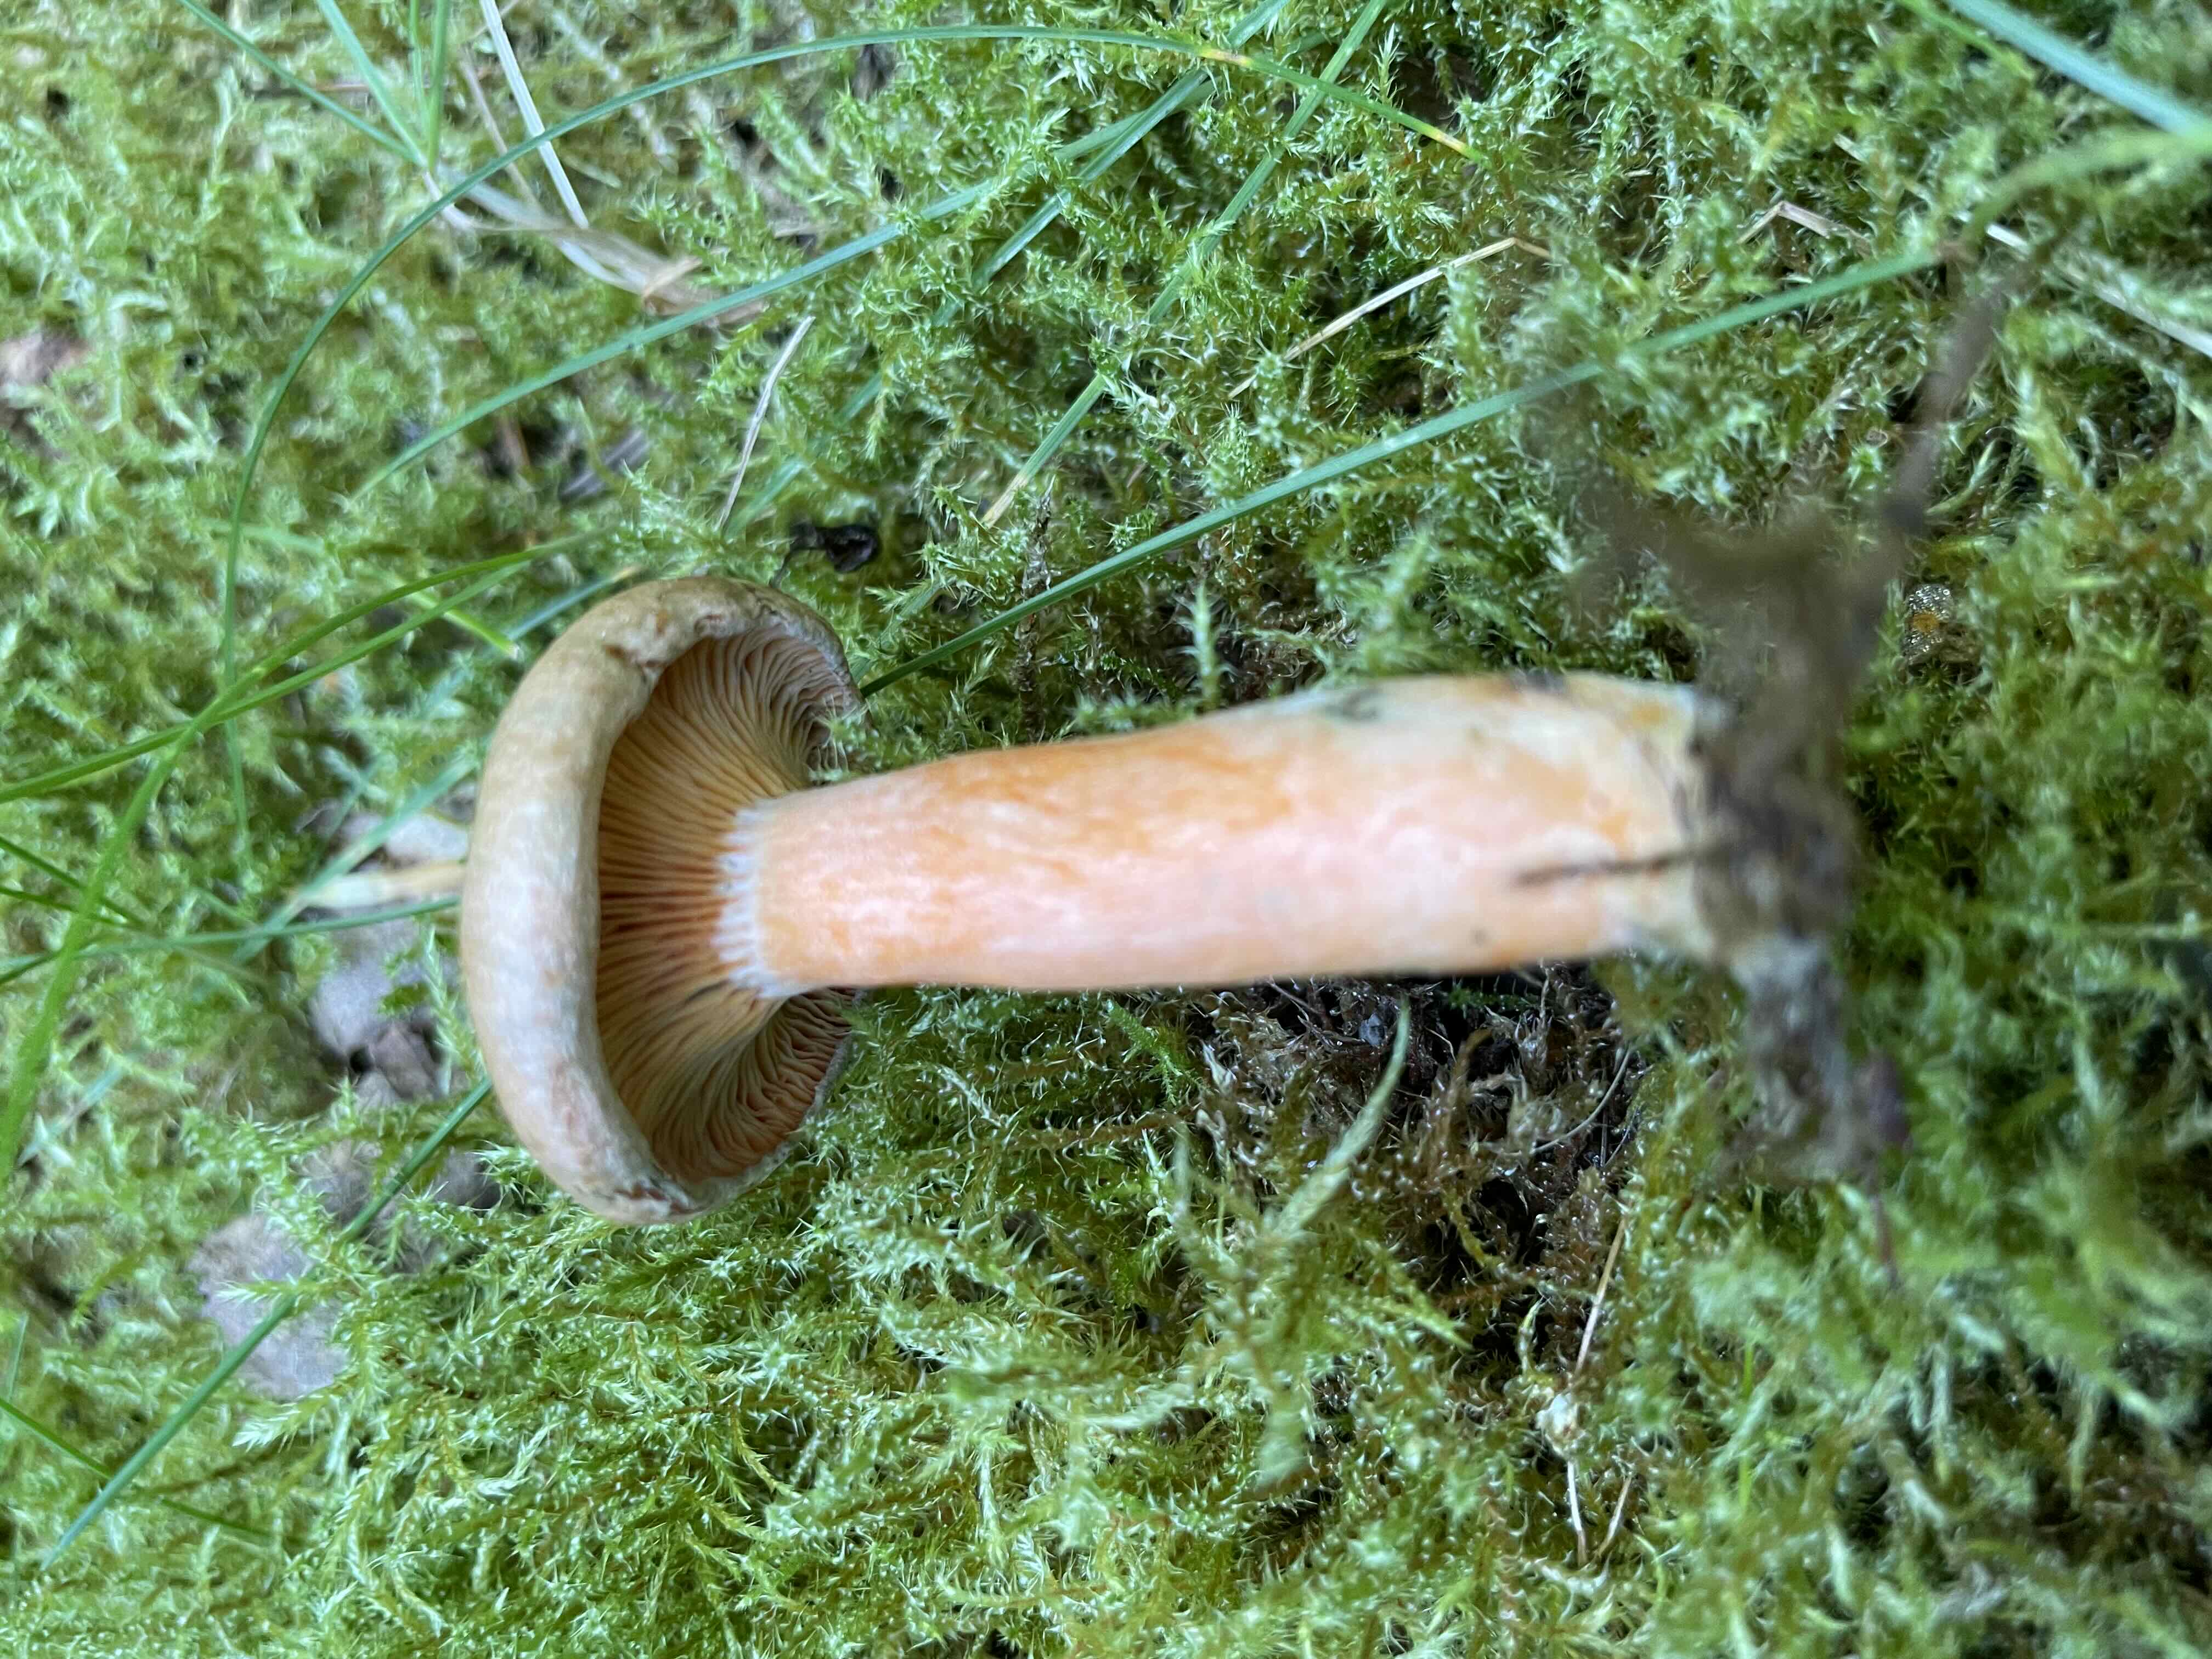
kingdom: Fungi
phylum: Basidiomycota
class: Agaricomycetes
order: Russulales
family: Russulaceae
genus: Lactarius
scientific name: Lactarius deterrimus
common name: gran-mælkehat
